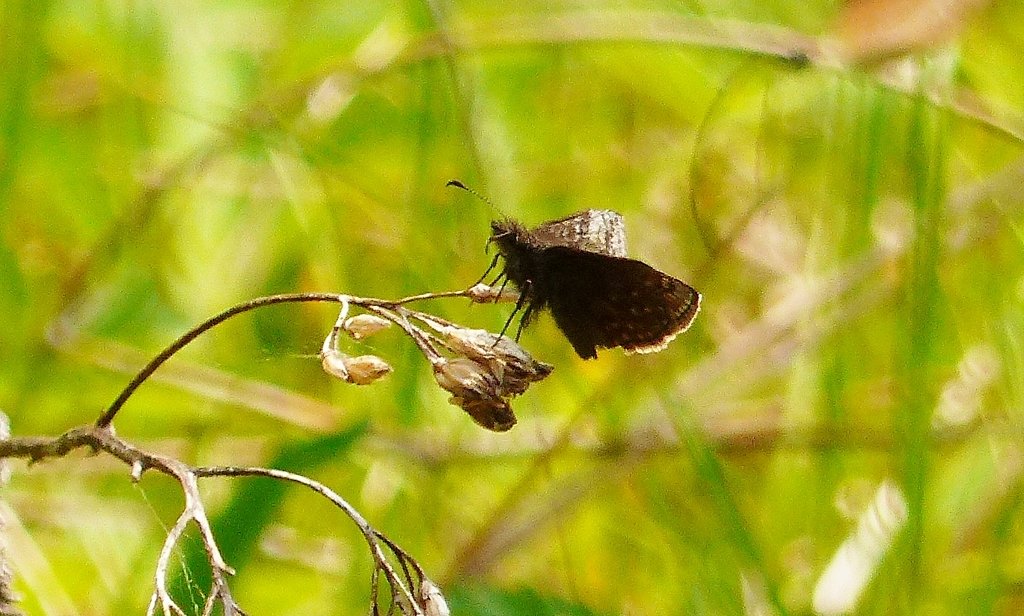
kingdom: Animalia
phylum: Arthropoda
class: Insecta
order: Lepidoptera
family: Hesperiidae
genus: Erynnis
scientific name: Erynnis icelus
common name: Dreamy Duskywing
